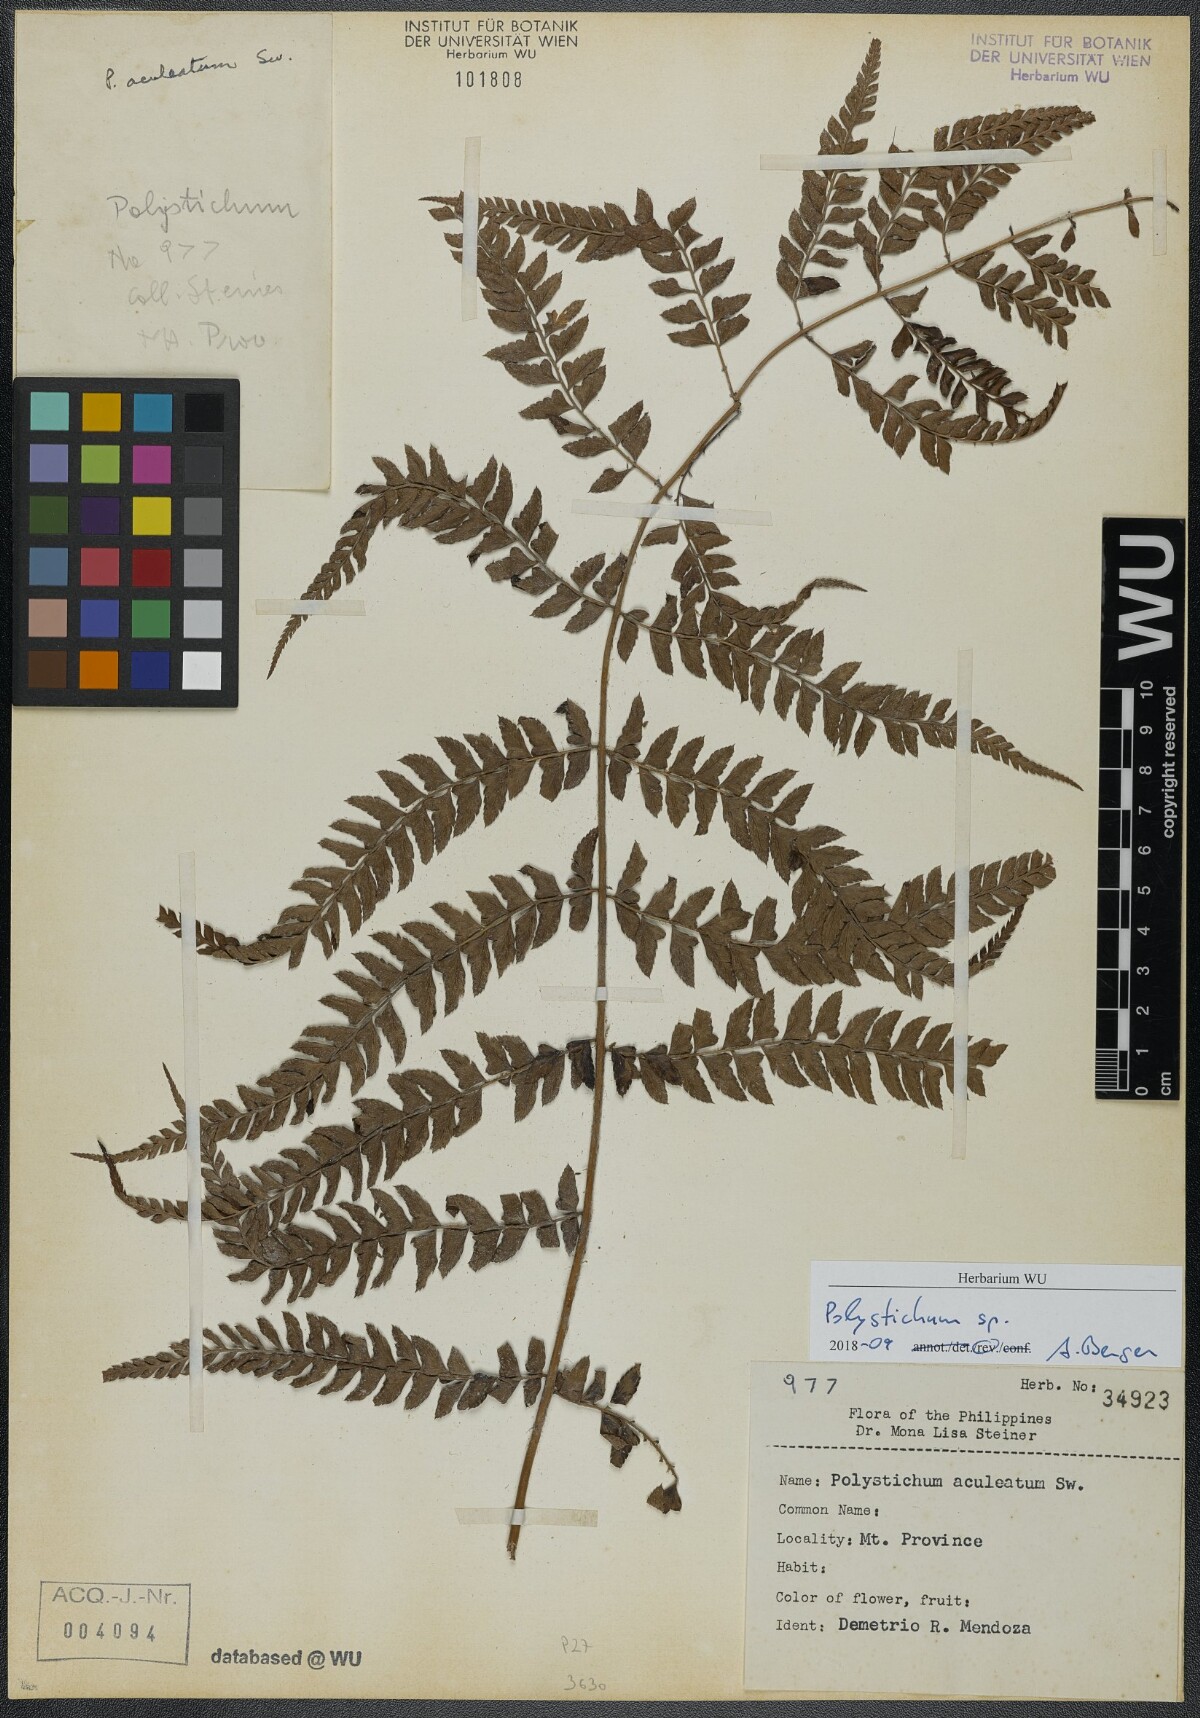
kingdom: Plantae
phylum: Tracheophyta
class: Polypodiopsida
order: Polypodiales
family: Dryopteridaceae
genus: Polystichum
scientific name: Polystichum
